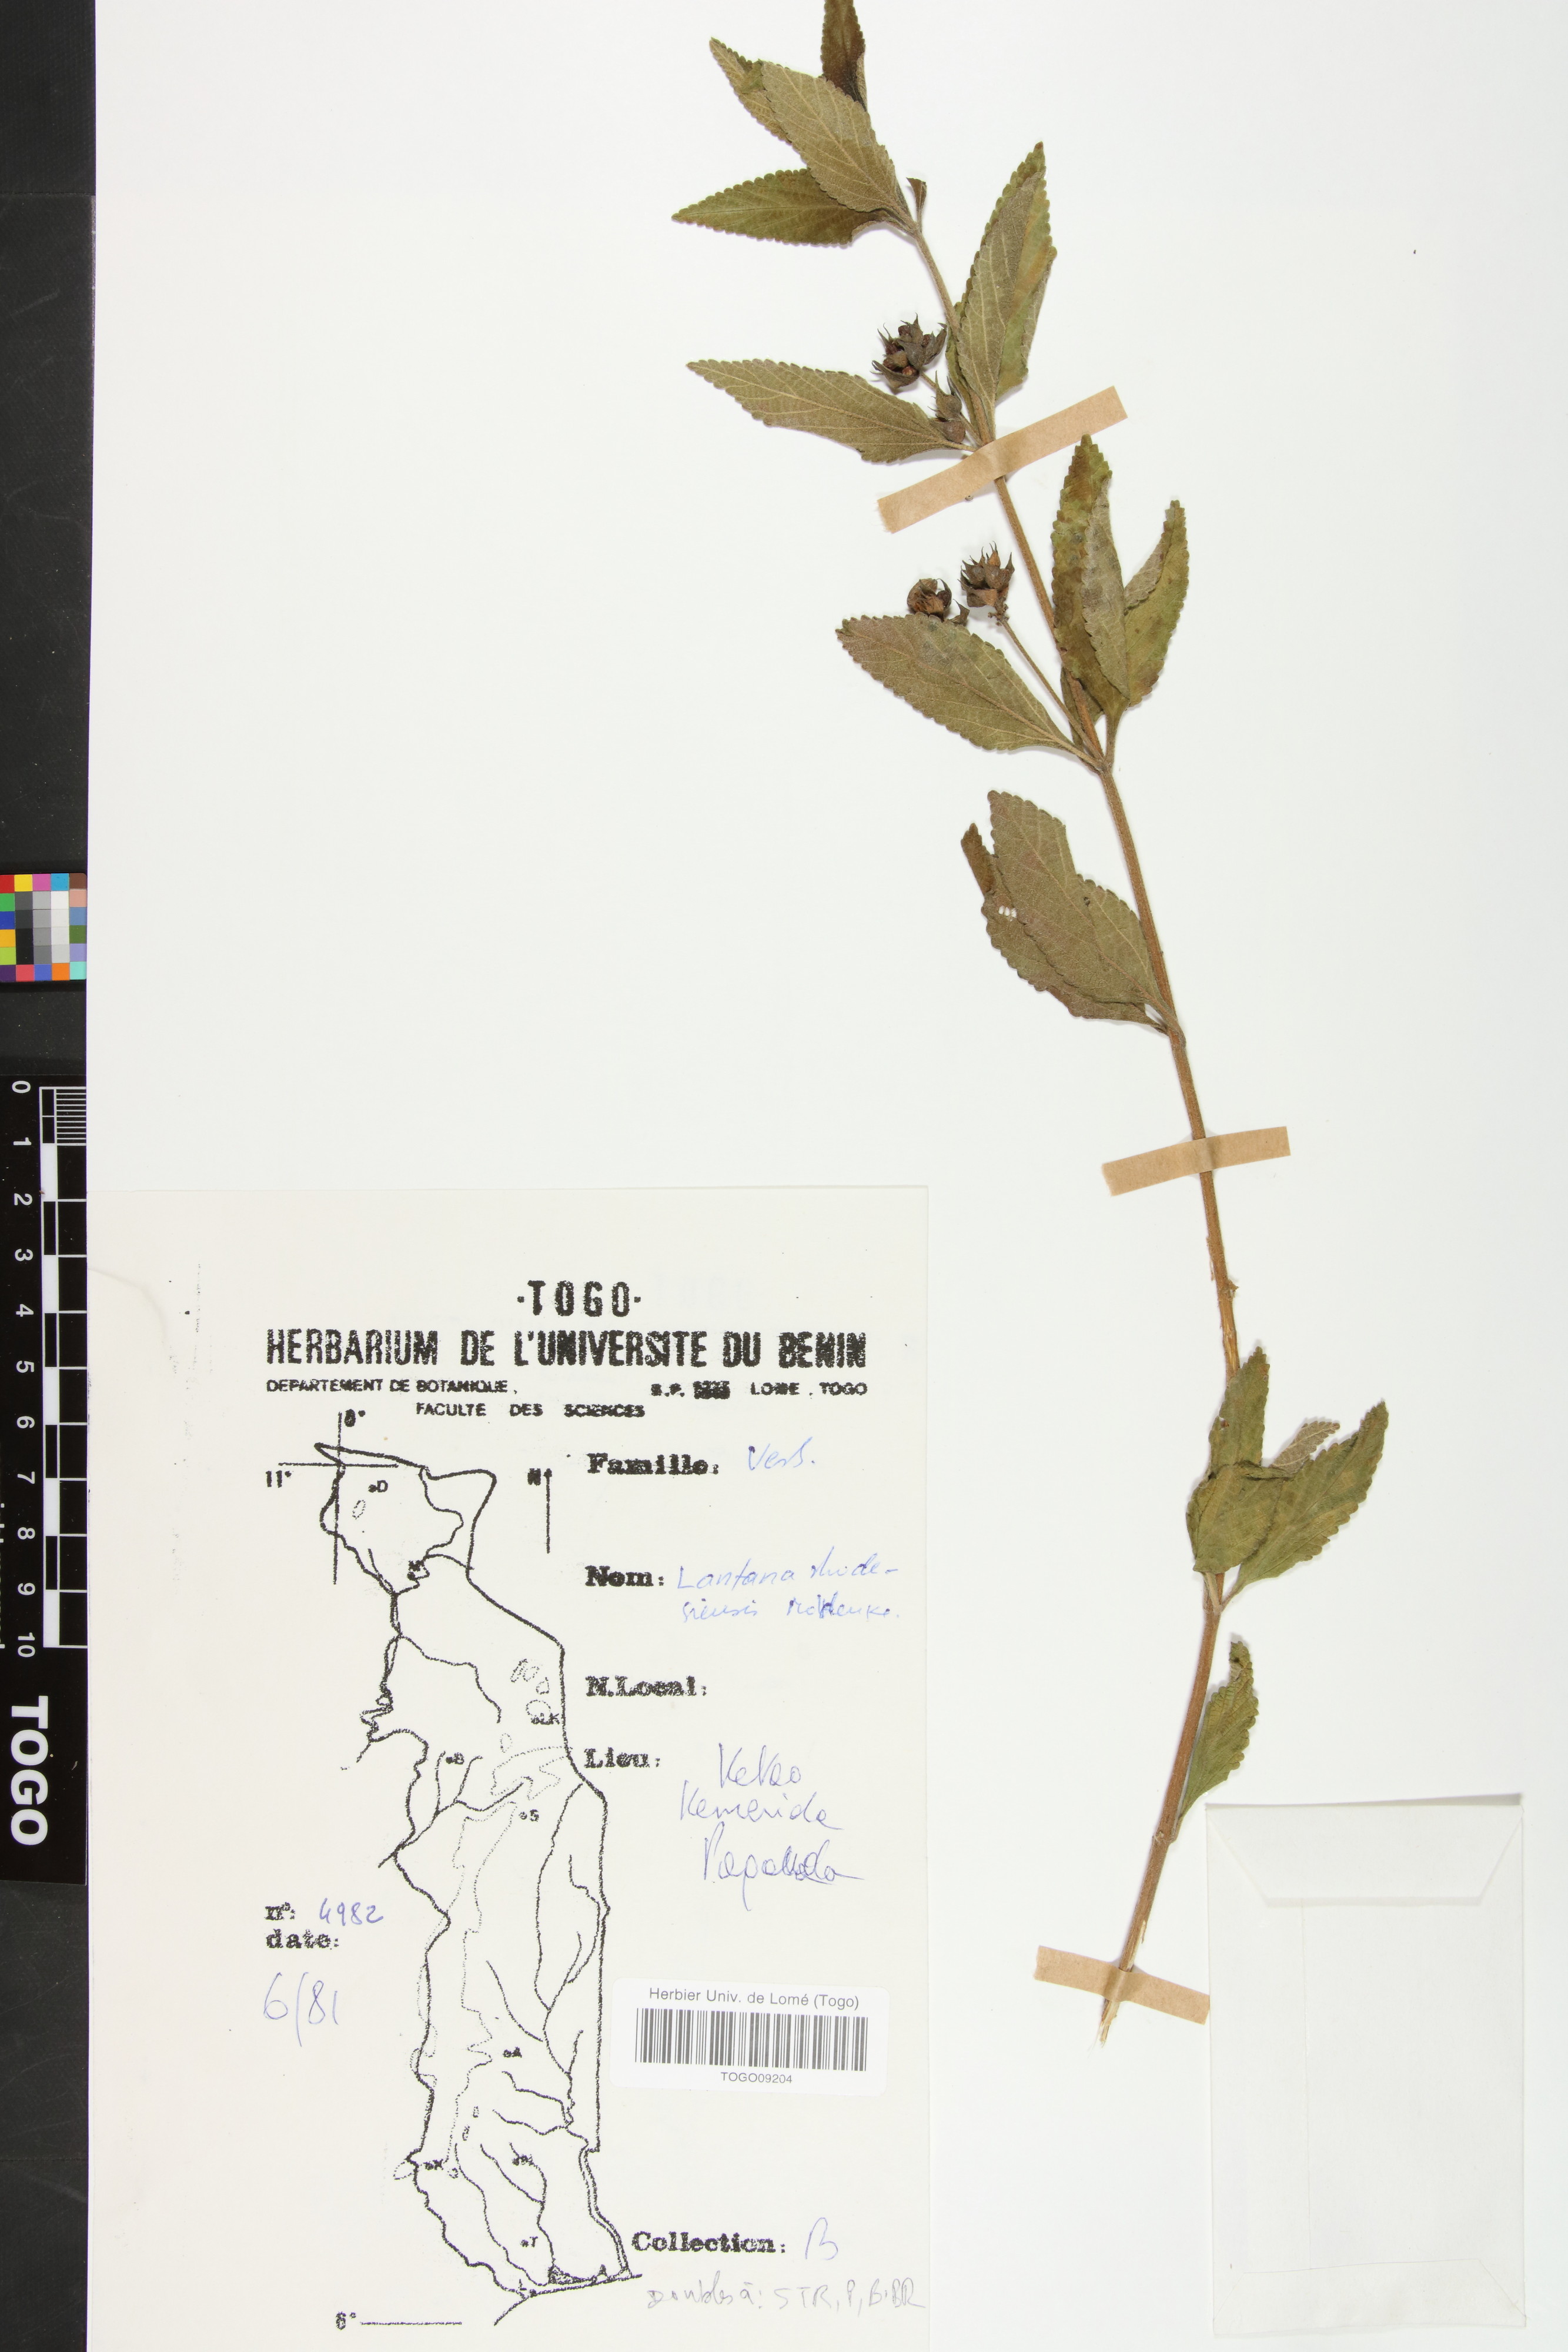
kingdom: Plantae
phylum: Tracheophyta
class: Magnoliopsida
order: Lamiales
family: Verbenaceae
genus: Lantana
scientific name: Lantana ukambensis
